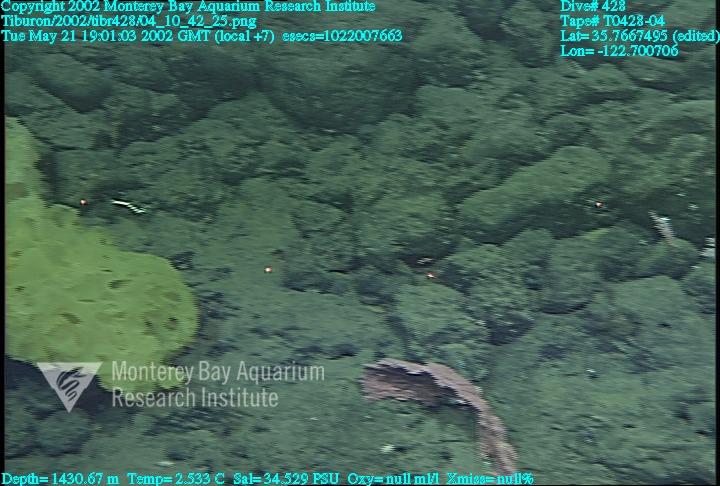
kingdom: Animalia
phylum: Porifera
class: Hexactinellida
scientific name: Hexactinellida
